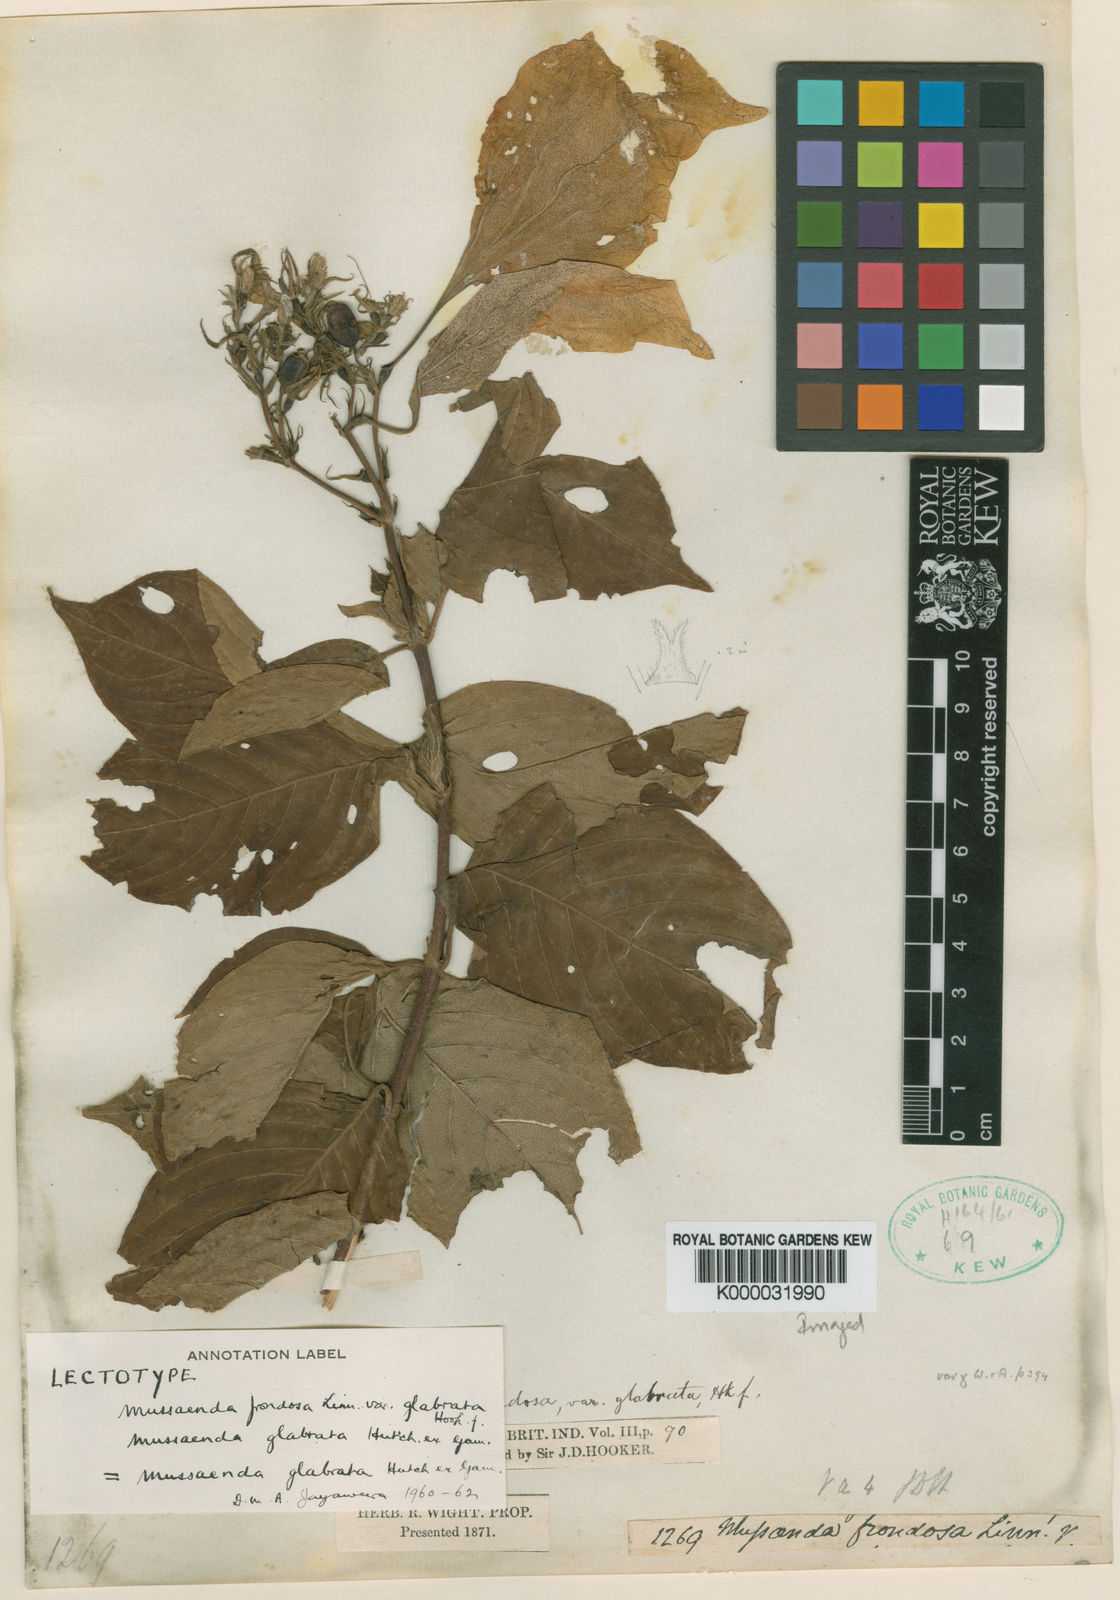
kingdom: Plantae
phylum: Tracheophyta
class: Magnoliopsida
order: Gentianales
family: Rubiaceae
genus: Mussaenda
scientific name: Mussaenda glabrata
